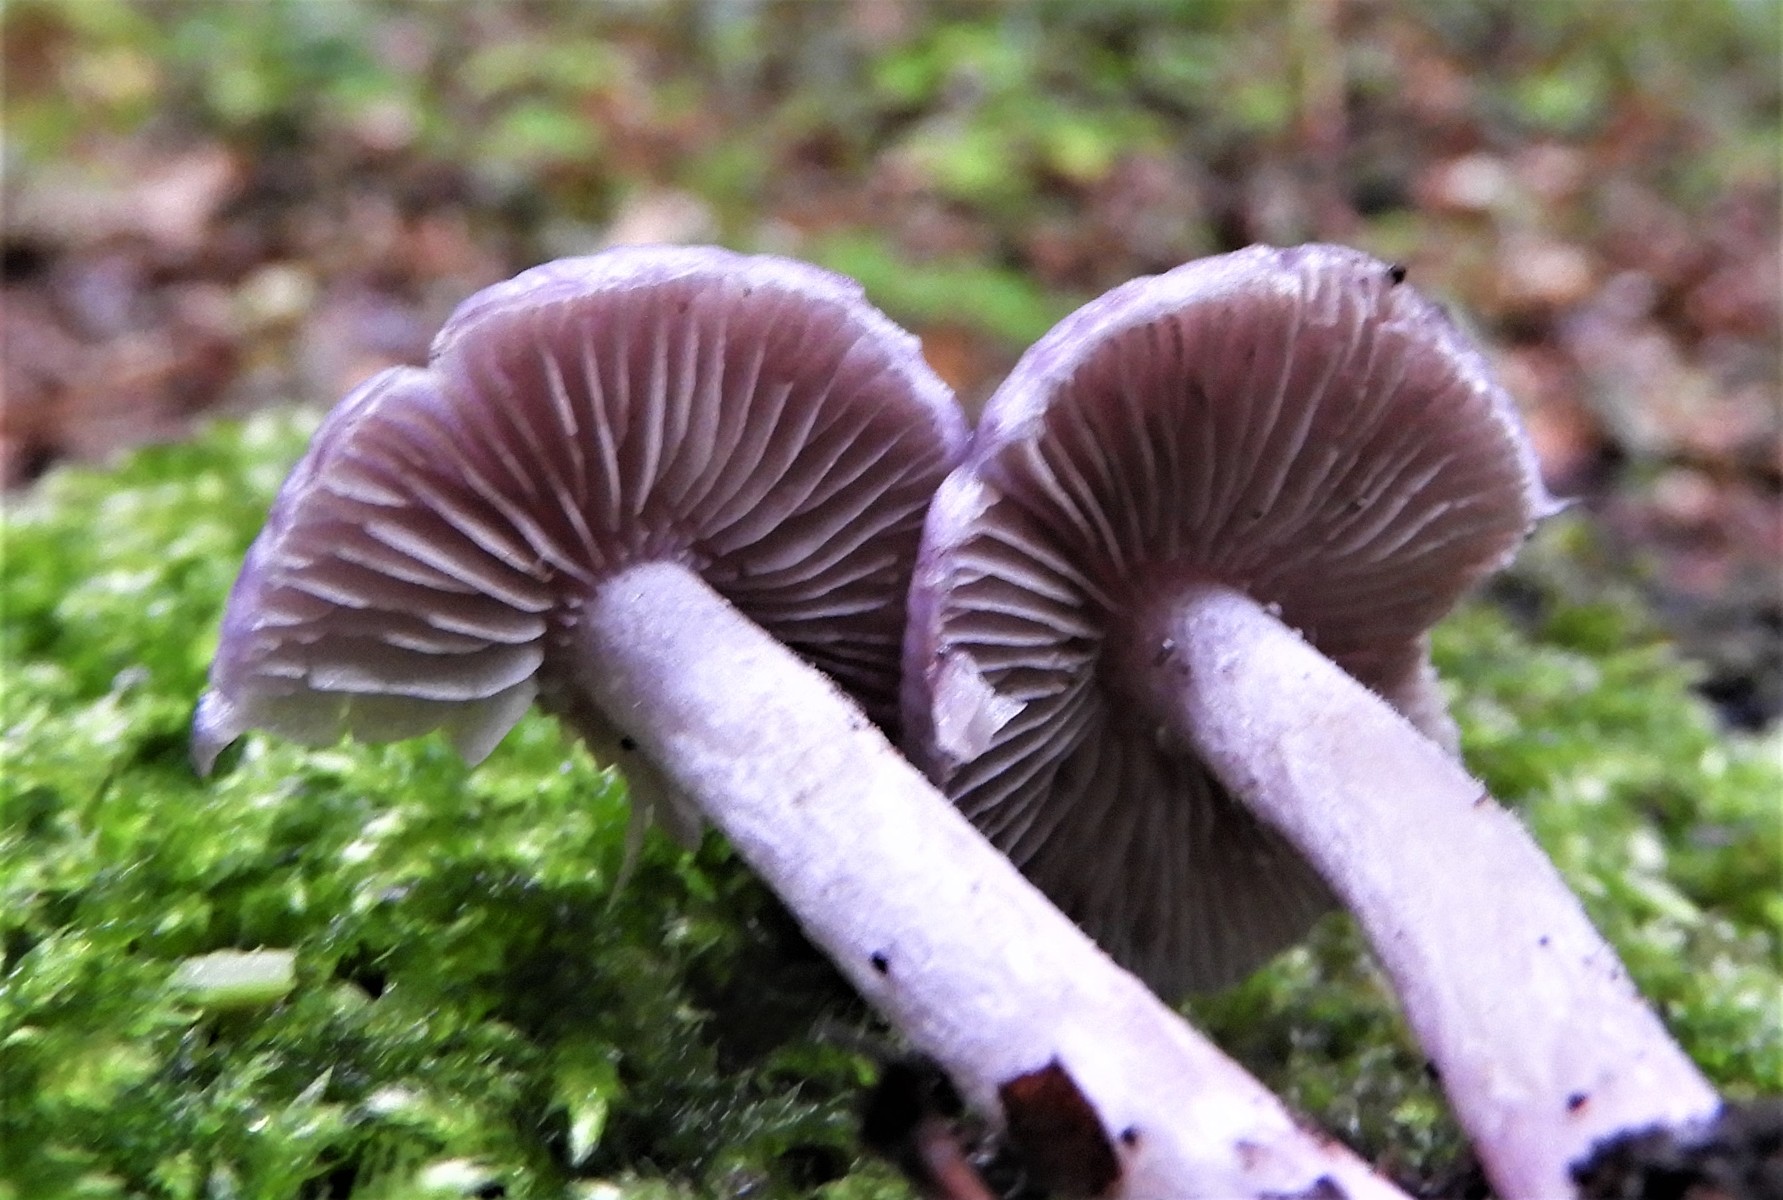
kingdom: Fungi
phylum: Basidiomycota
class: Agaricomycetes
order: Agaricales
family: Inocybaceae
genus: Inocybe
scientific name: Inocybe geophylla
